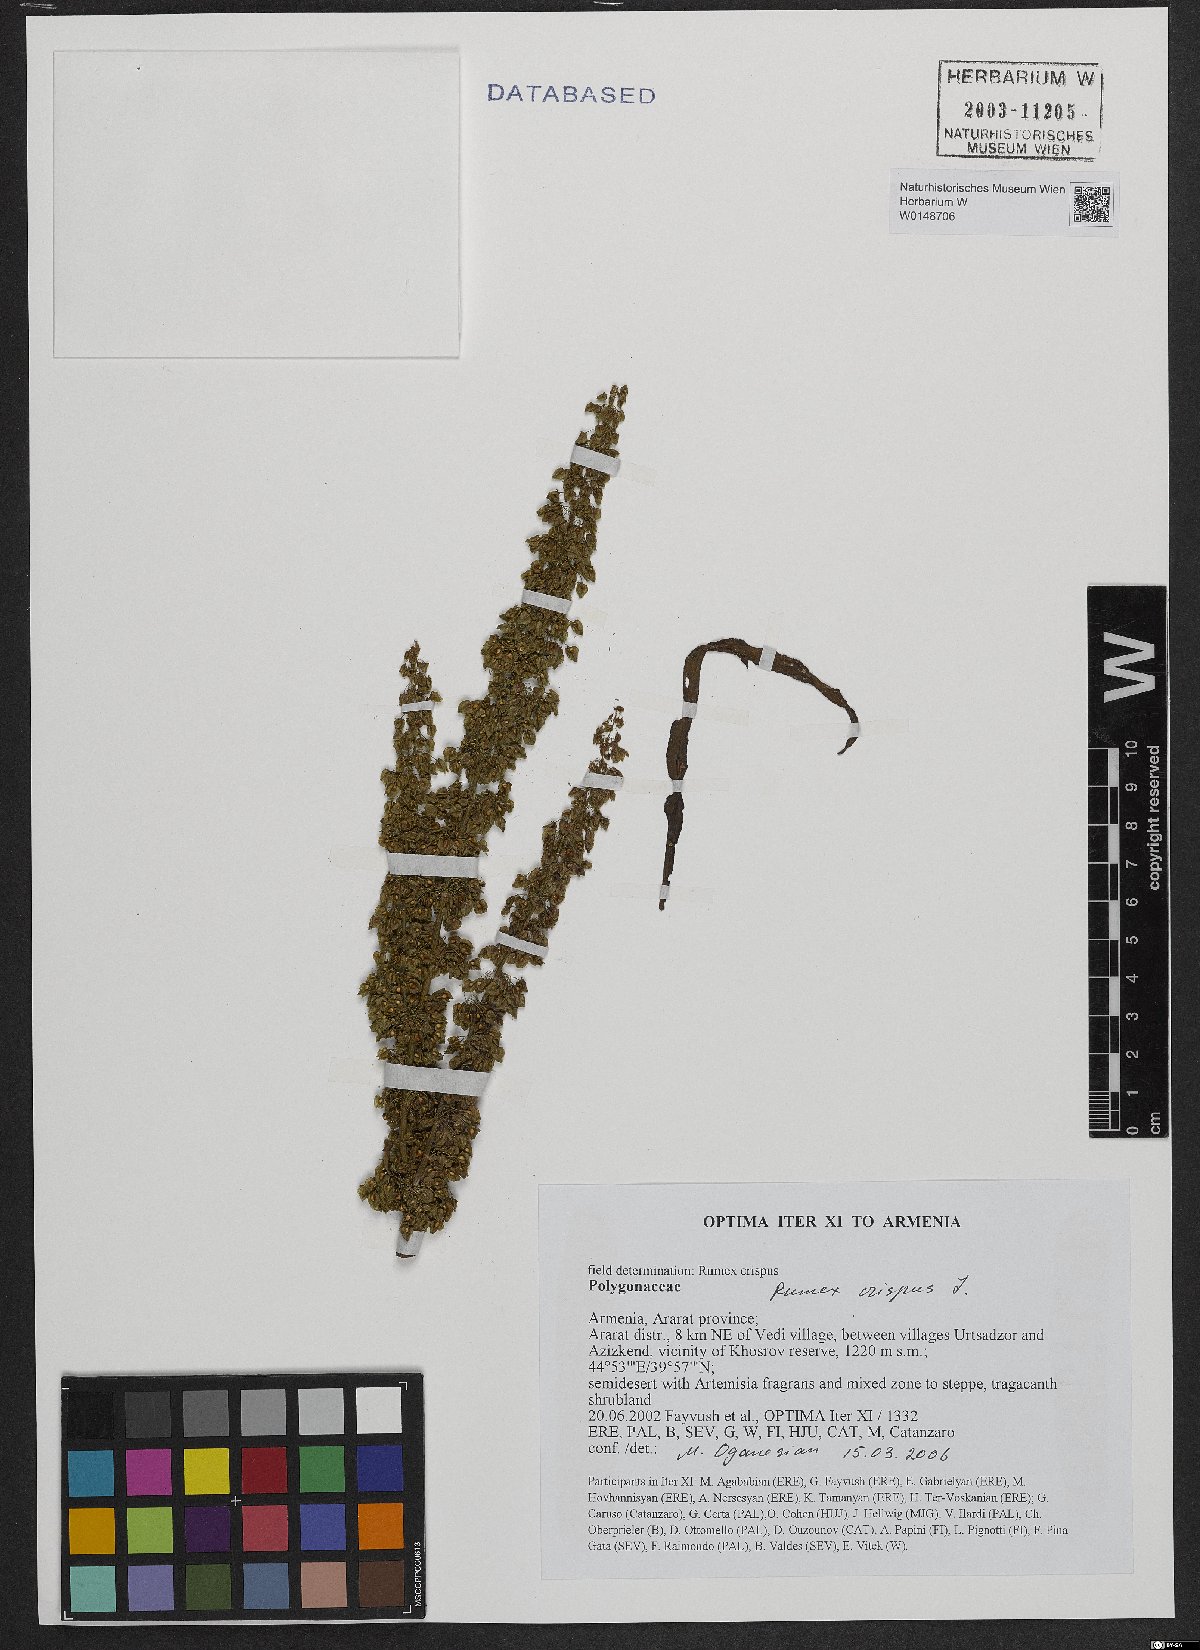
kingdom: Plantae
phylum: Tracheophyta
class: Magnoliopsida
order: Caryophyllales
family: Polygonaceae
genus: Rumex
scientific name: Rumex crispus
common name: Curled dock
